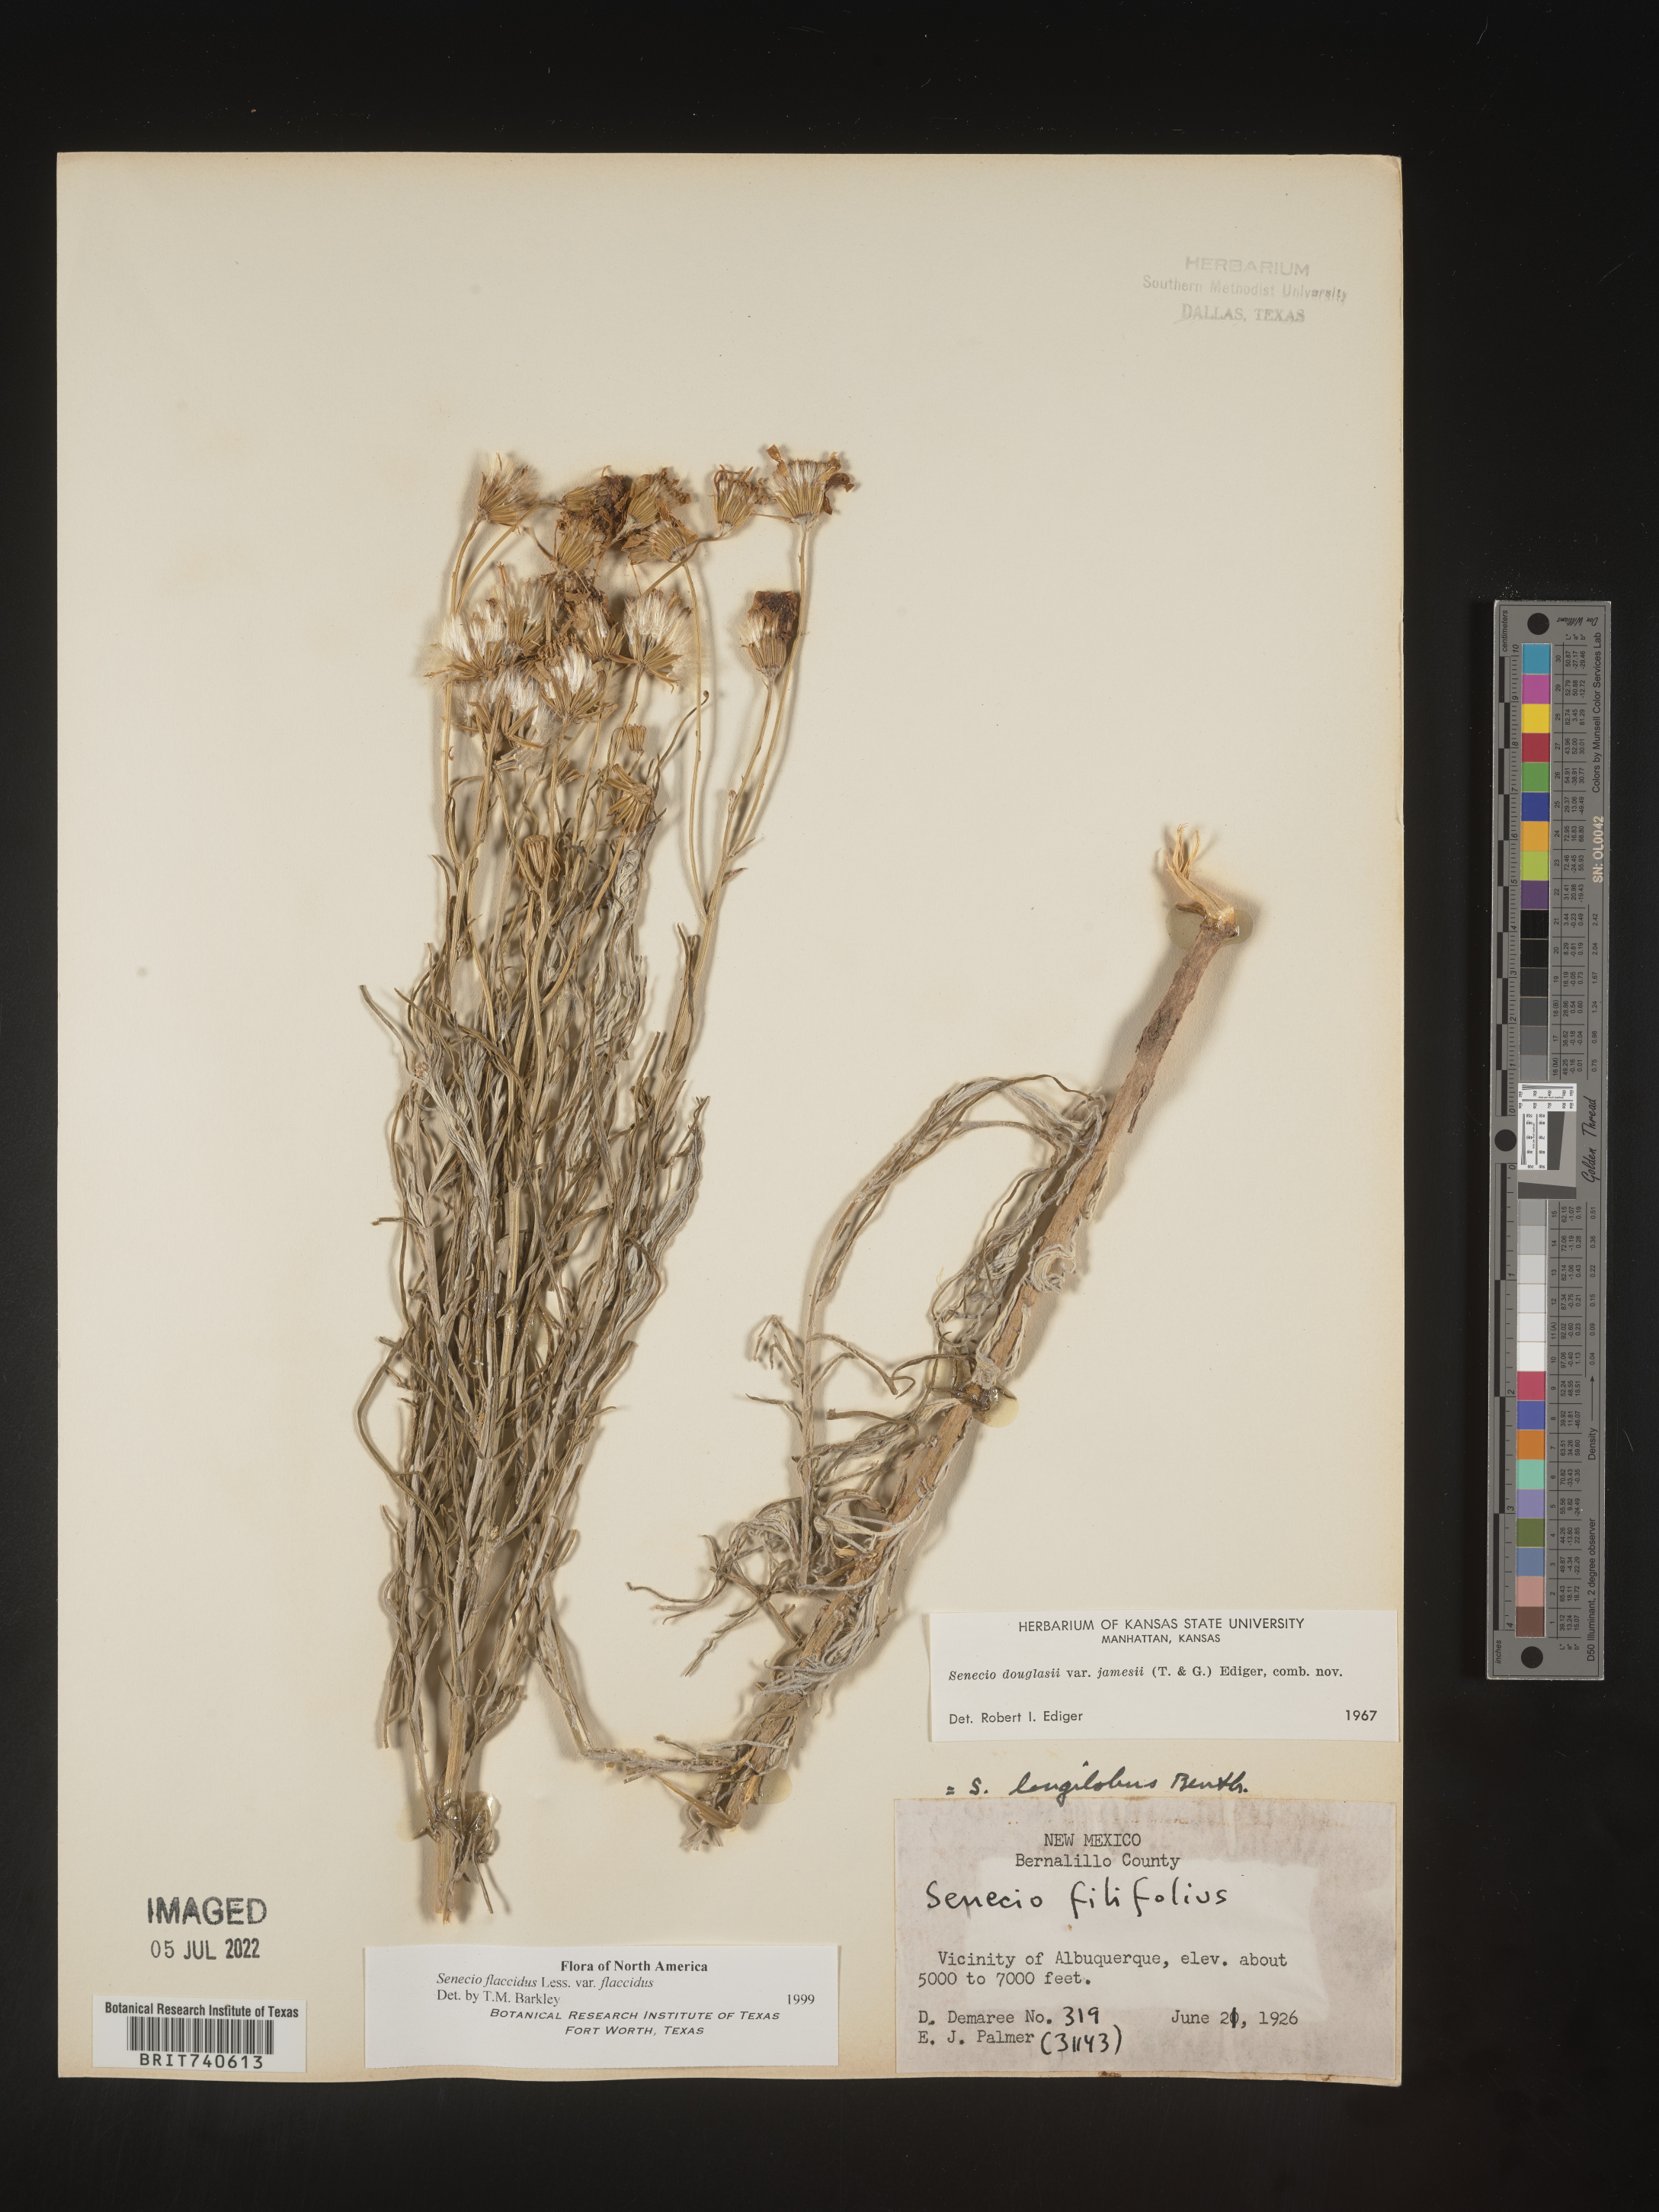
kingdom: Plantae
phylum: Tracheophyta
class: Magnoliopsida
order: Asterales
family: Asteraceae
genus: Senecio
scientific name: Senecio flaccidus
